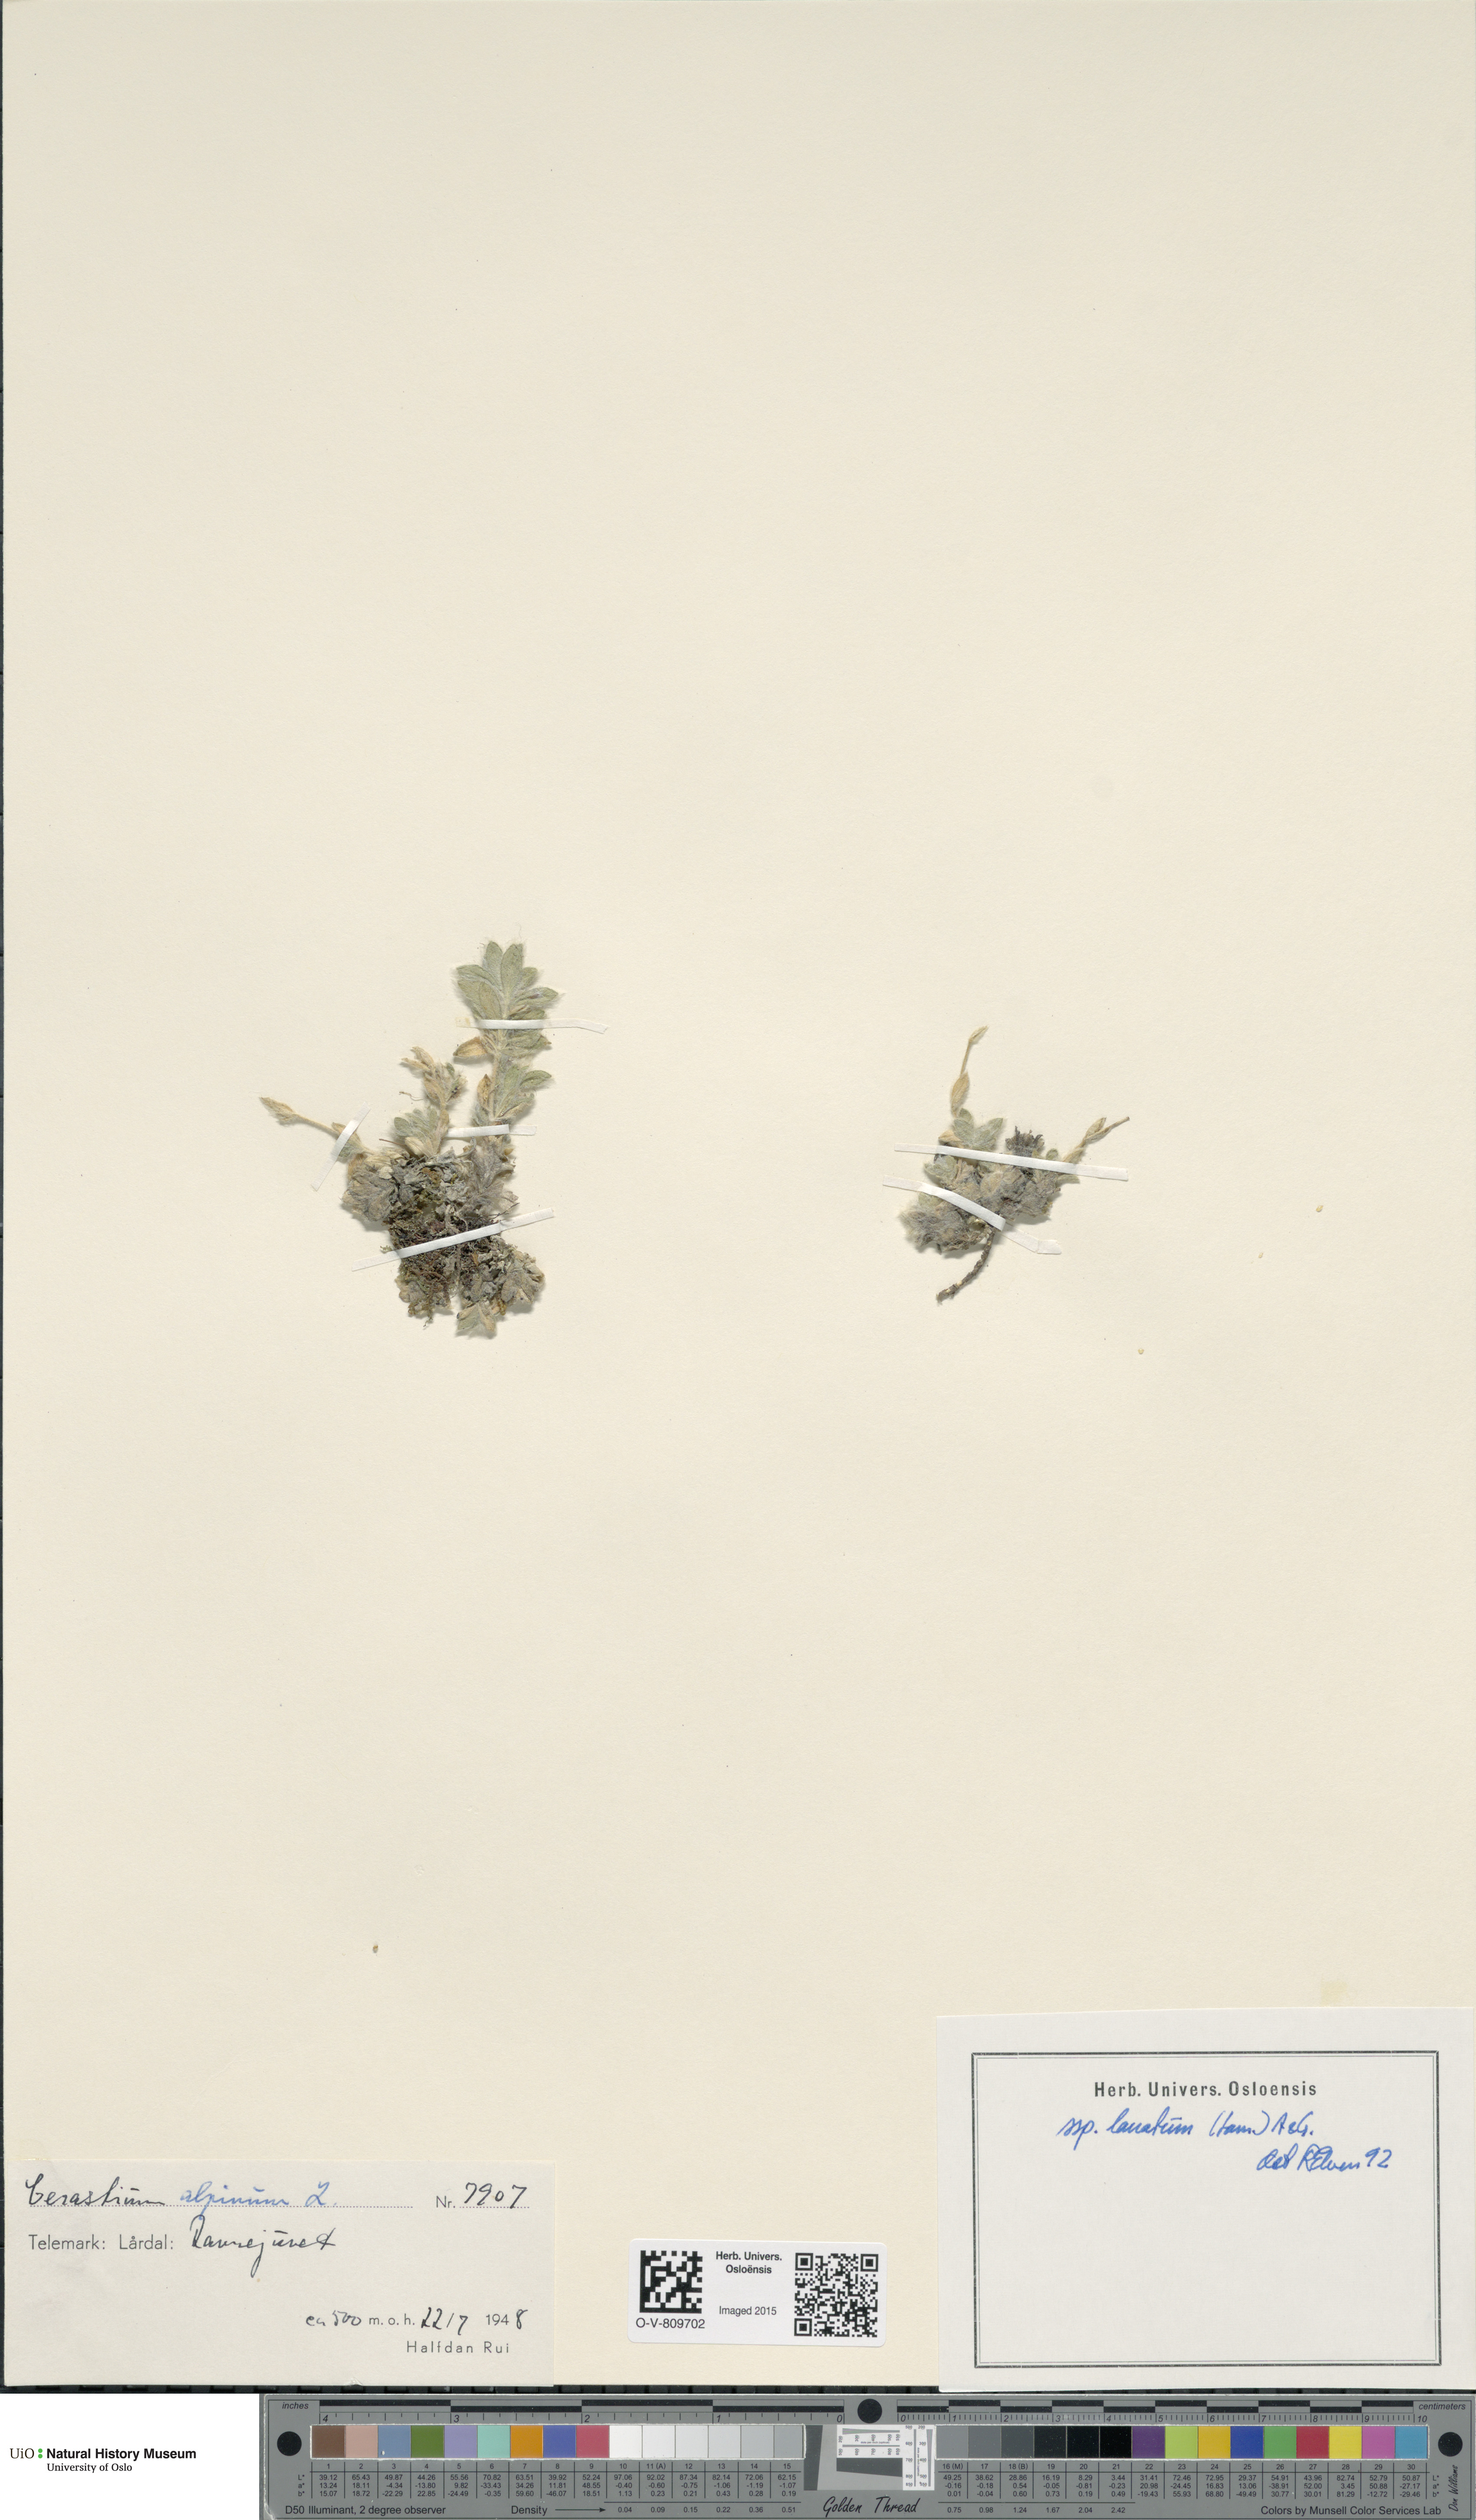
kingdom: Plantae
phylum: Tracheophyta
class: Magnoliopsida
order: Caryophyllales
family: Caryophyllaceae
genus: Cerastium
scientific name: Cerastium alpinum
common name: Alpine mouse-ear
